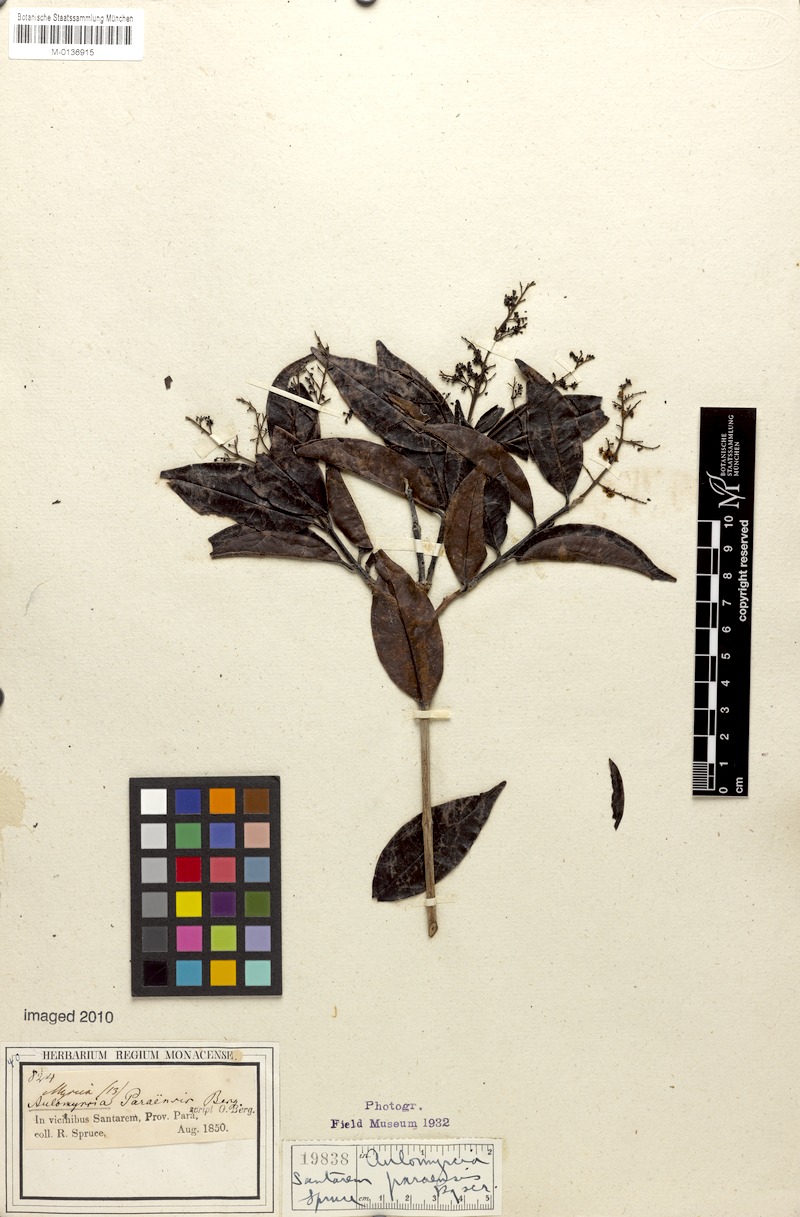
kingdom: Plantae
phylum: Tracheophyta
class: Magnoliopsida
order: Myrtales
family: Myrtaceae
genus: Myrcia
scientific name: Myrcia amazonica
